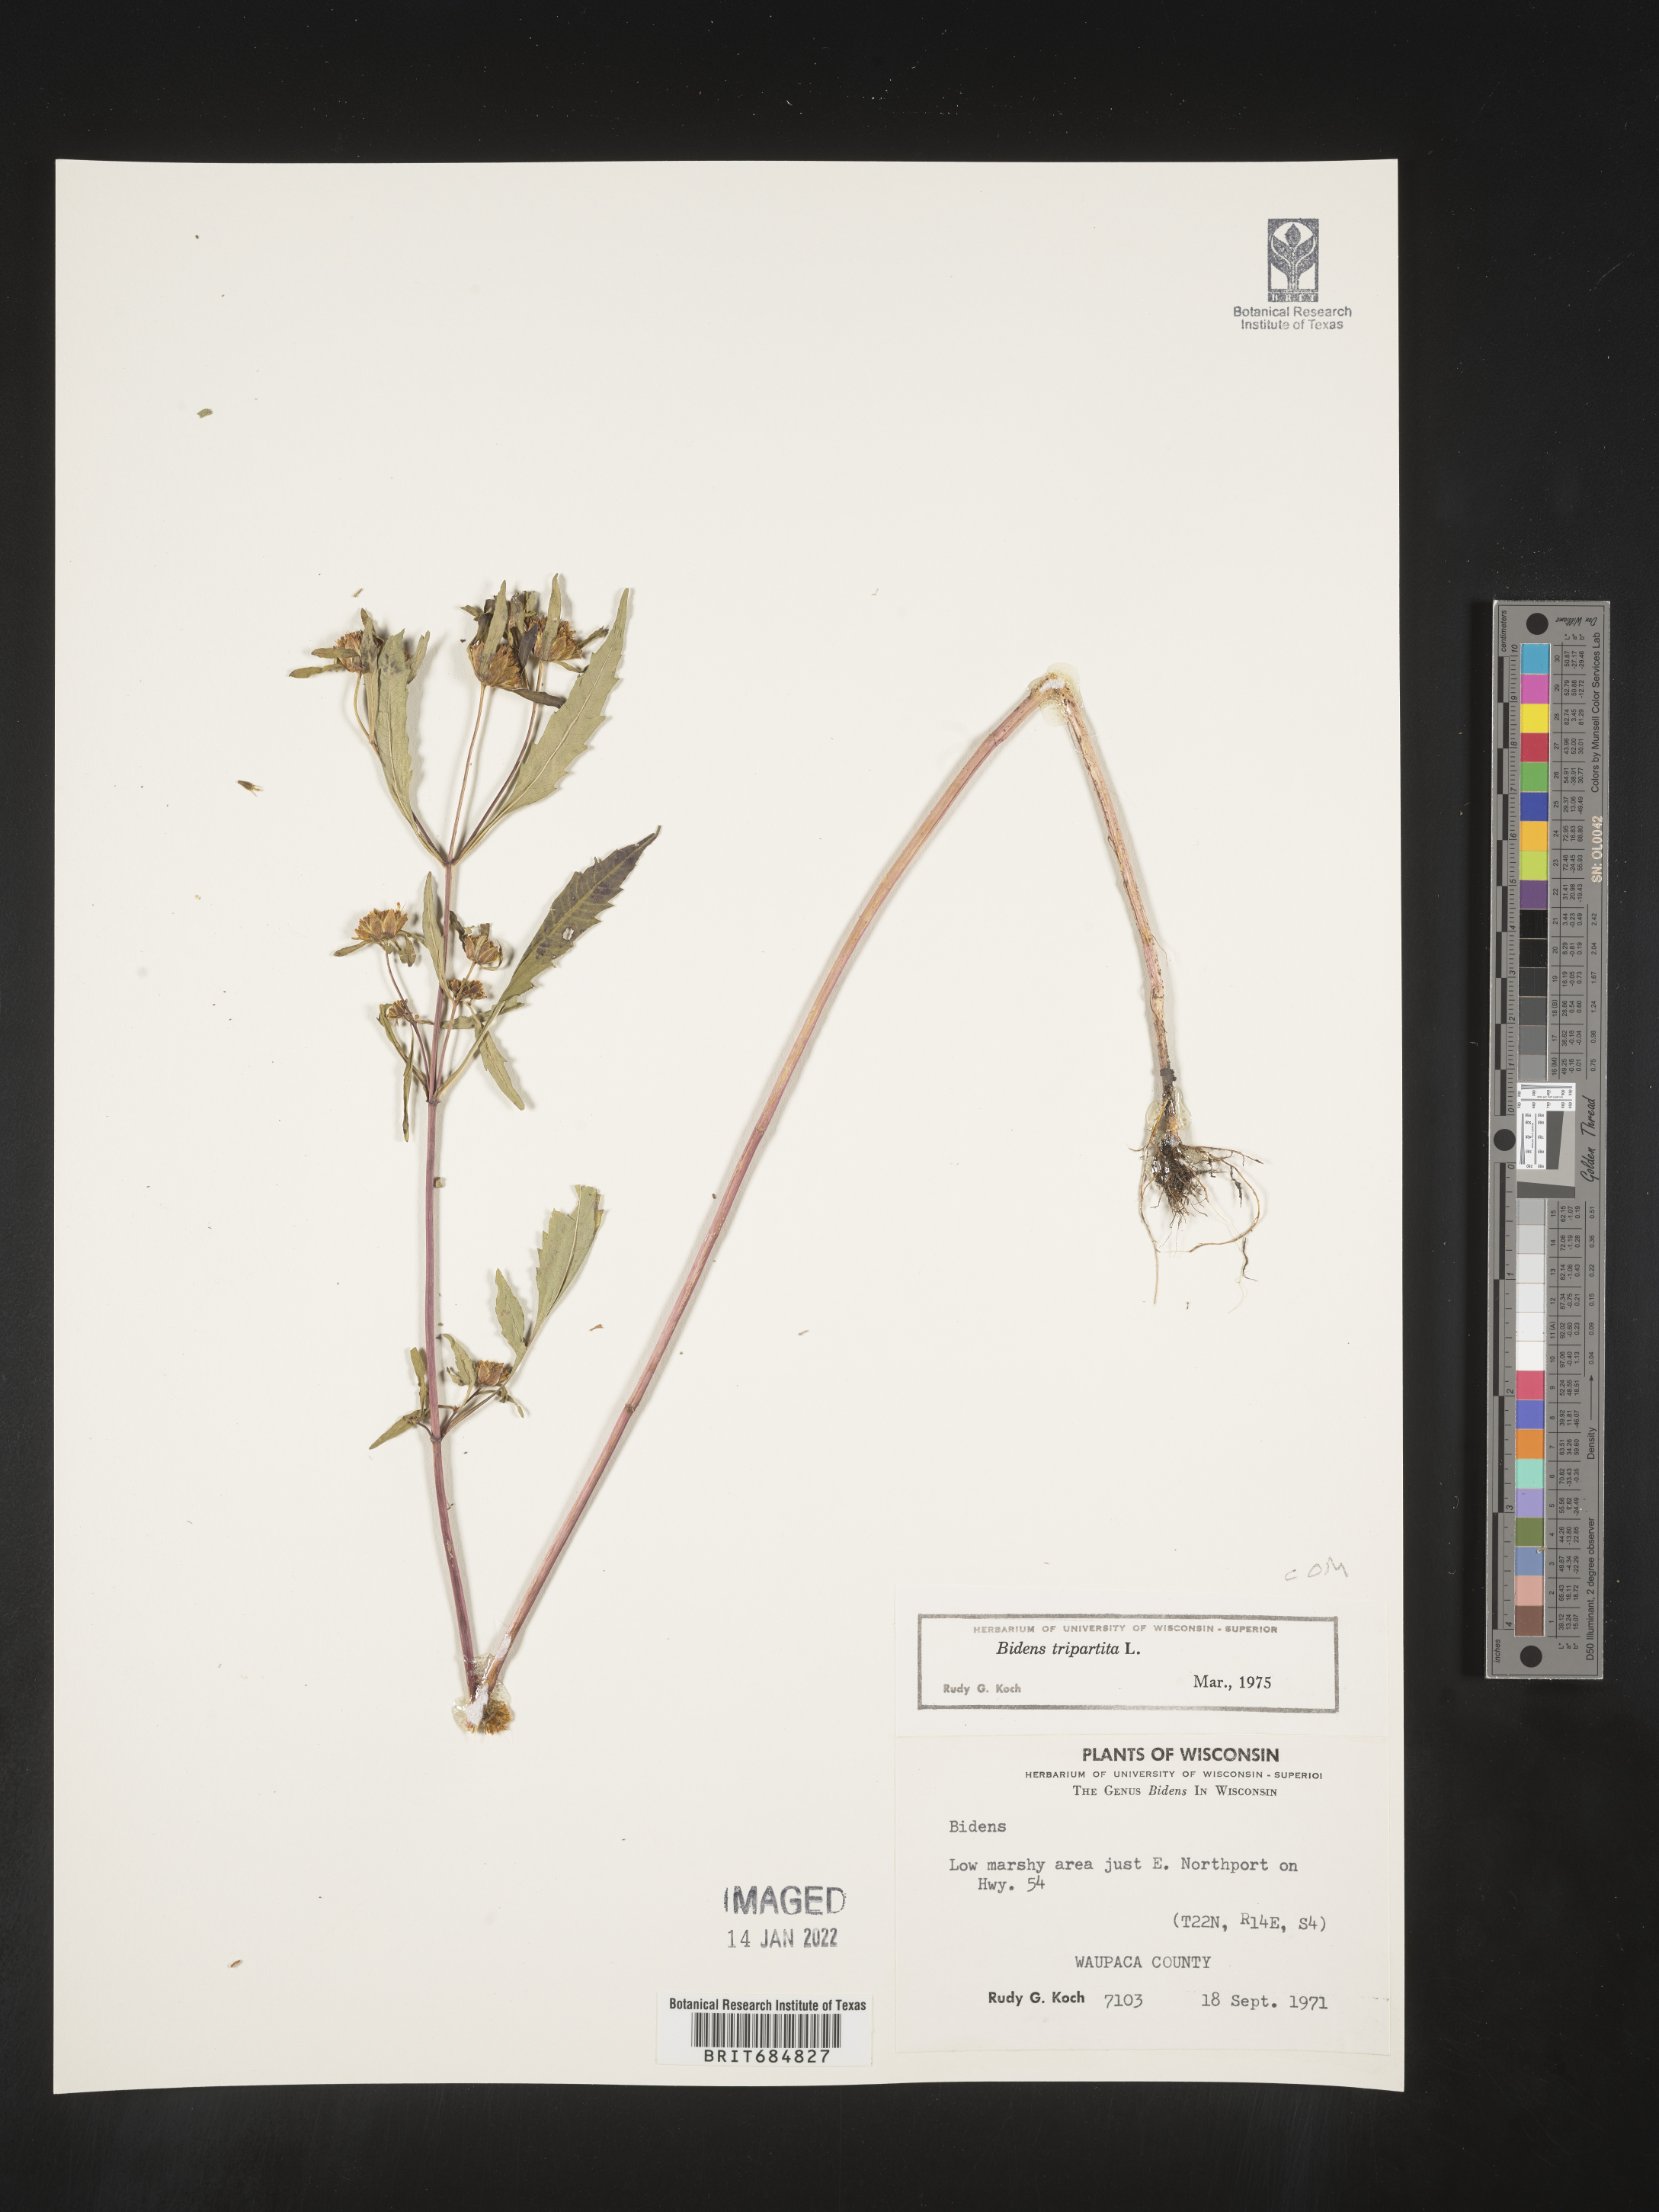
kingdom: Plantae
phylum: Tracheophyta
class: Magnoliopsida
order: Asterales
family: Asteraceae
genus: Bidens
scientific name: Bidens tripartita
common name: Trifid bur-marigold
